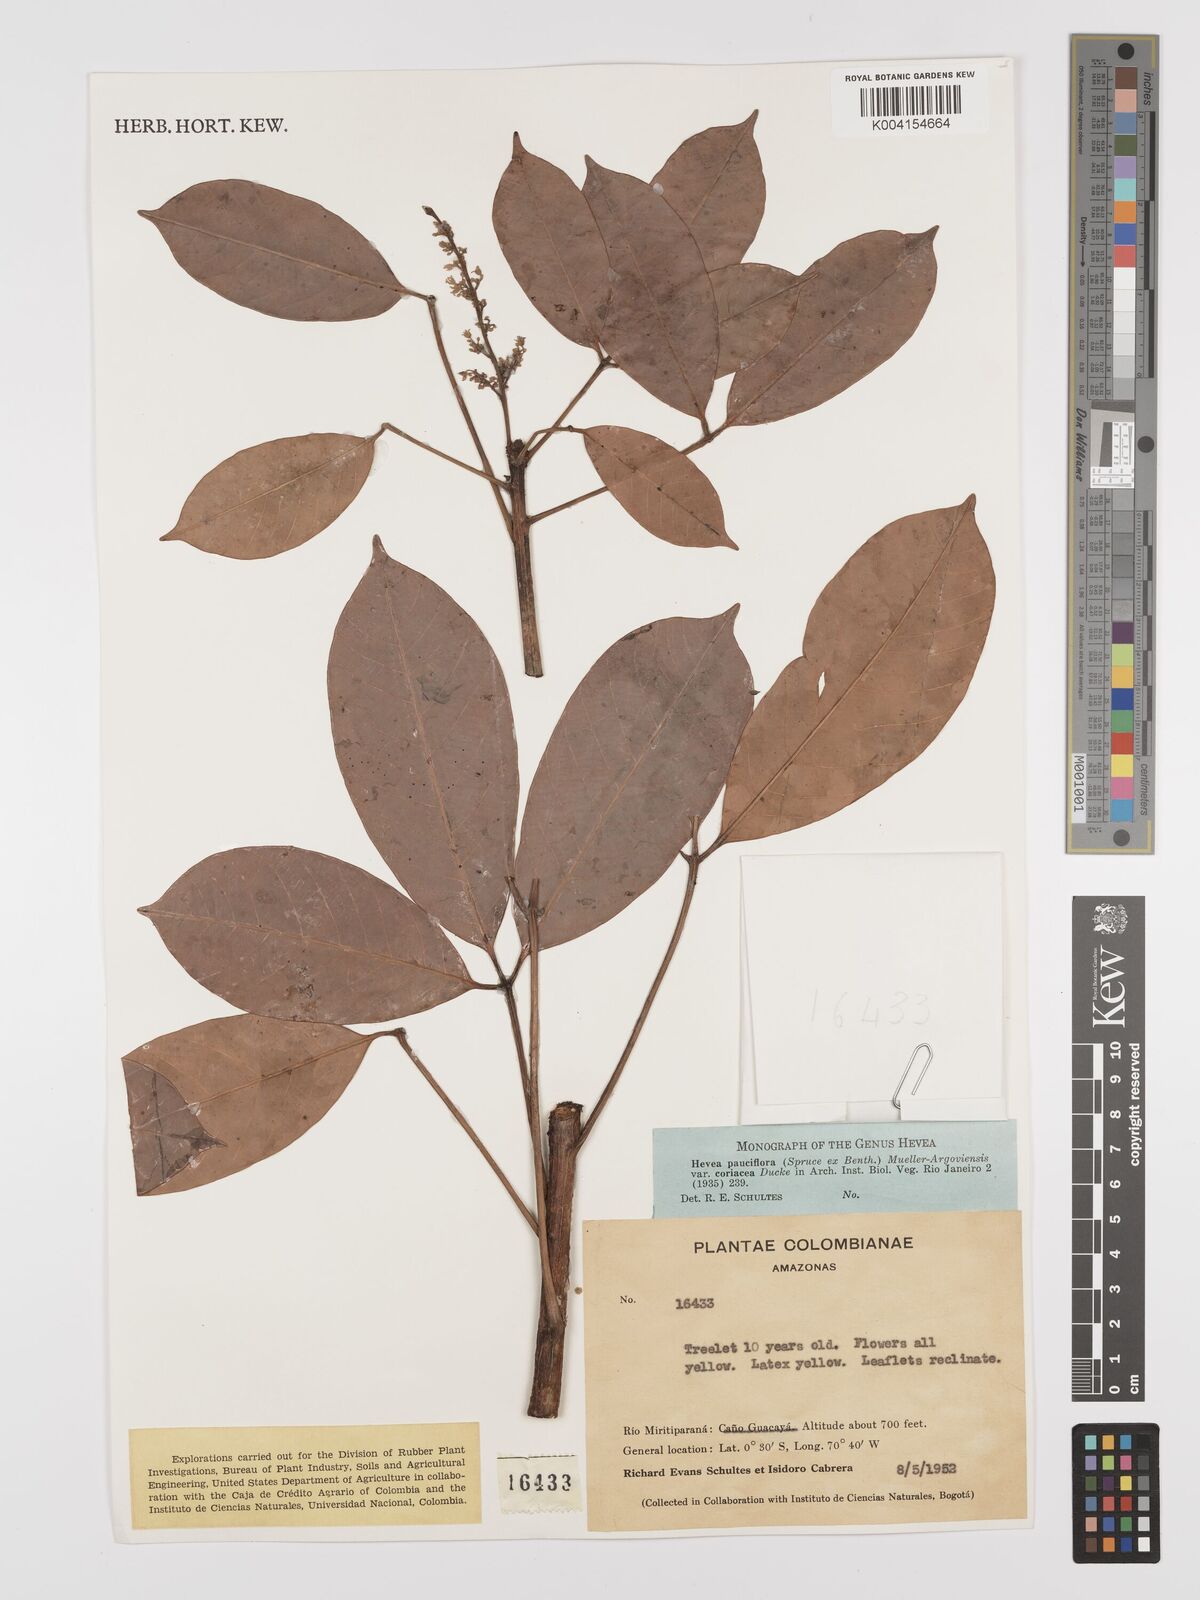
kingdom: Plantae
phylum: Tracheophyta
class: Magnoliopsida
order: Malpighiales
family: Euphorbiaceae
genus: Hevea
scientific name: Hevea pauciflora
